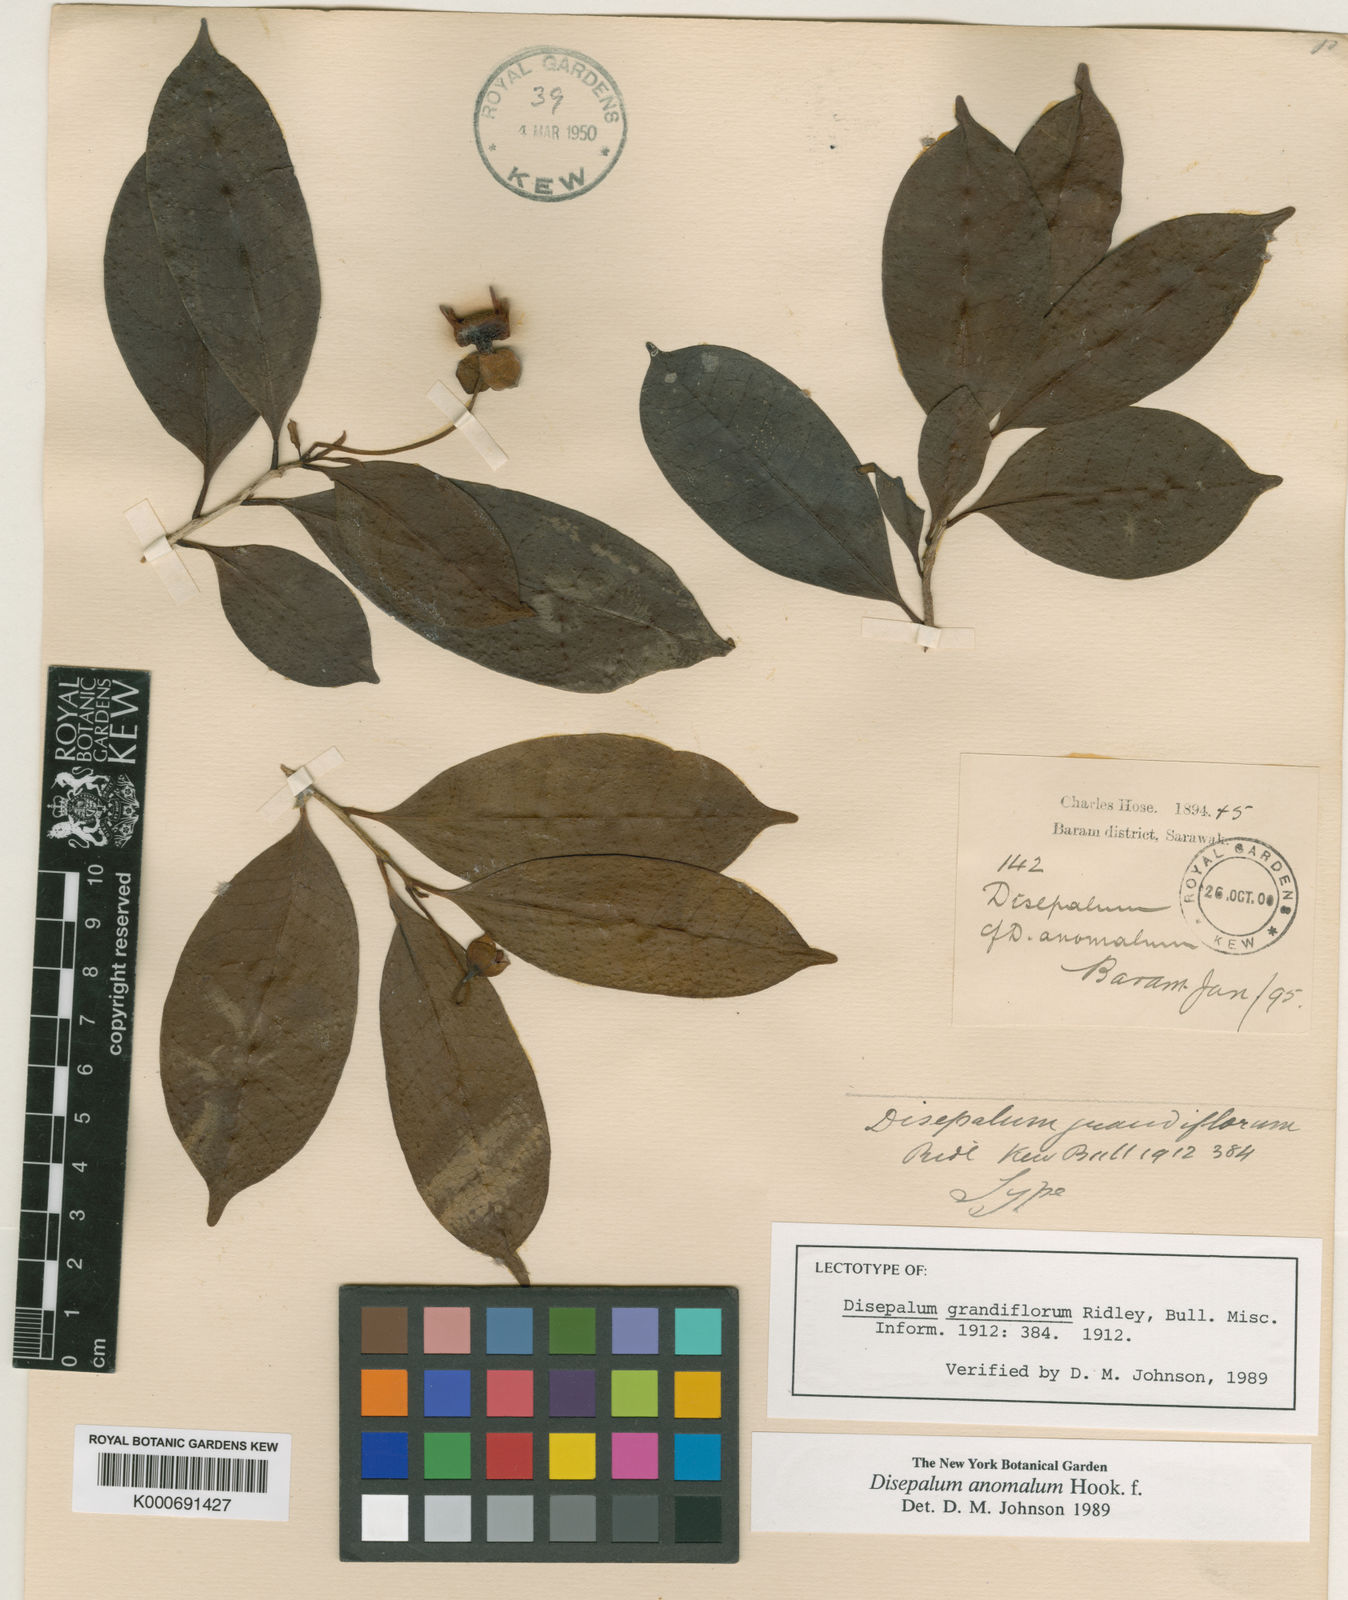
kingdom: Plantae
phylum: Tracheophyta
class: Magnoliopsida
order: Magnoliales
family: Annonaceae
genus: Disepalum
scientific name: Disepalum anomalum
